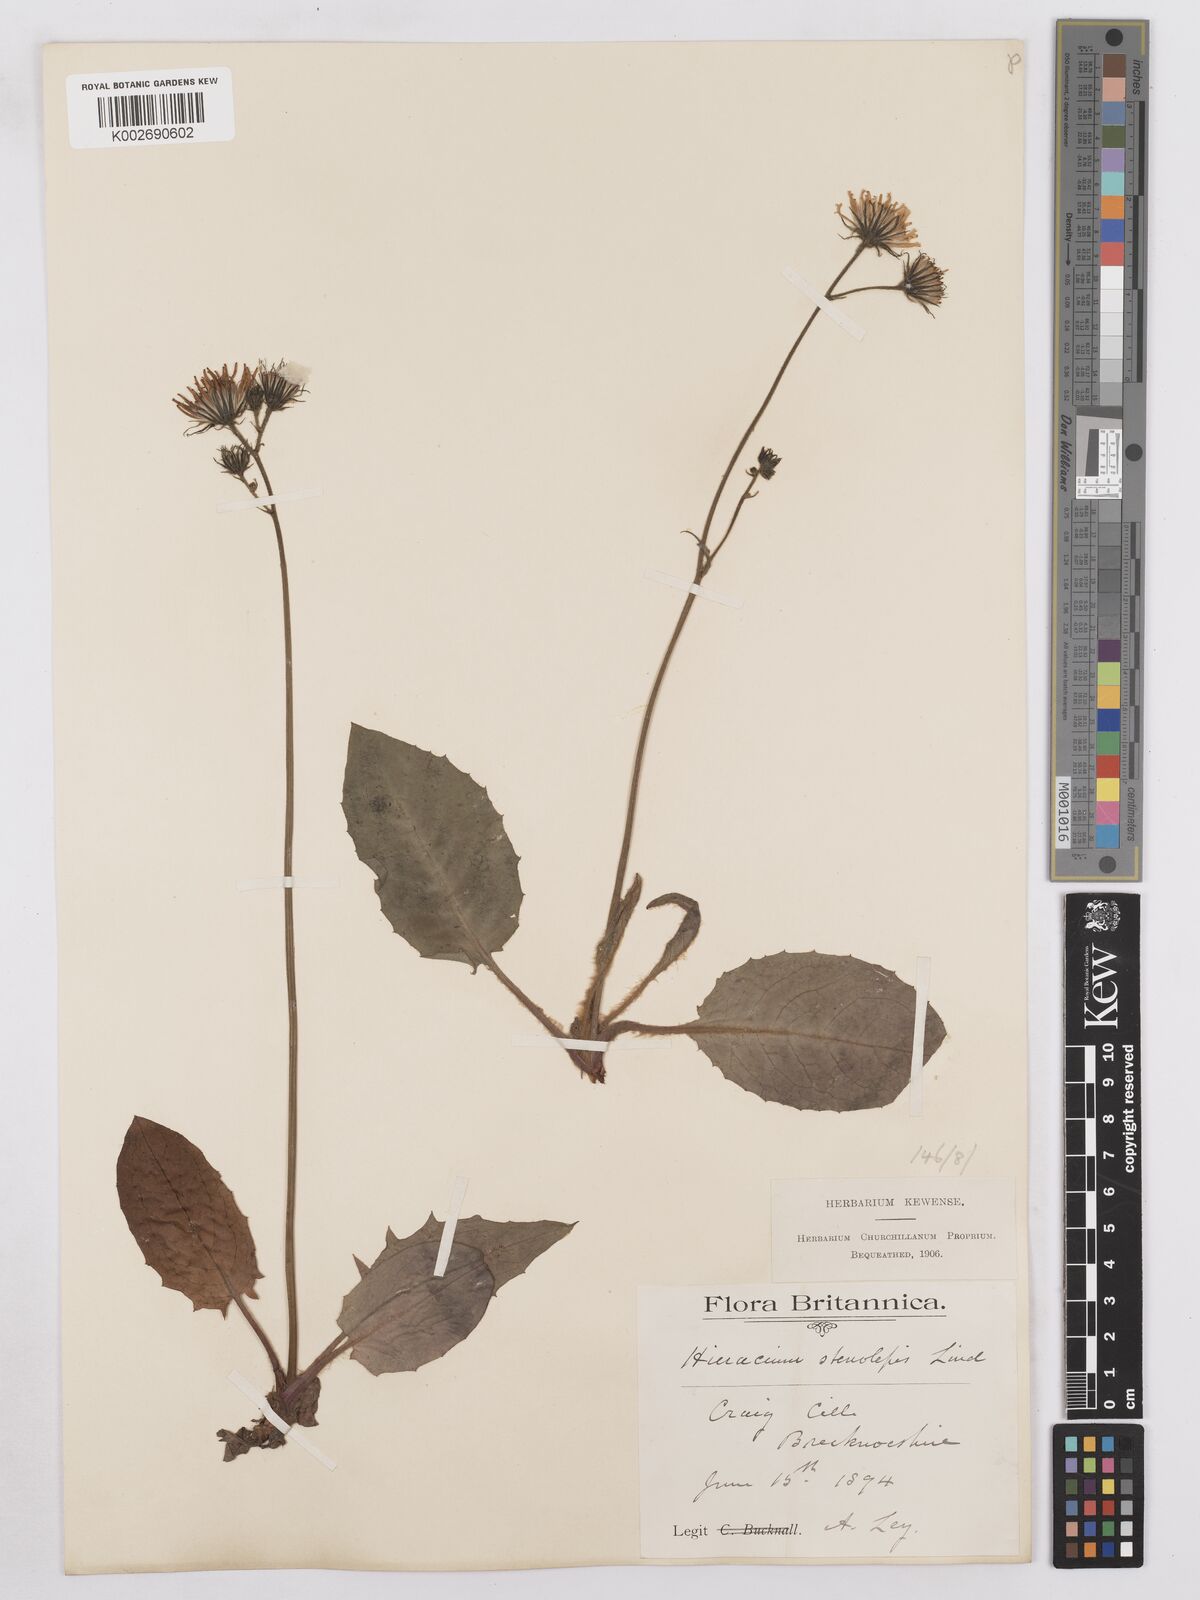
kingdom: Plantae
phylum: Tracheophyta
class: Magnoliopsida
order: Asterales
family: Asteraceae
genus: Hieracium
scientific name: Hieracium subbritannicum
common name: Limestone hawkweed
